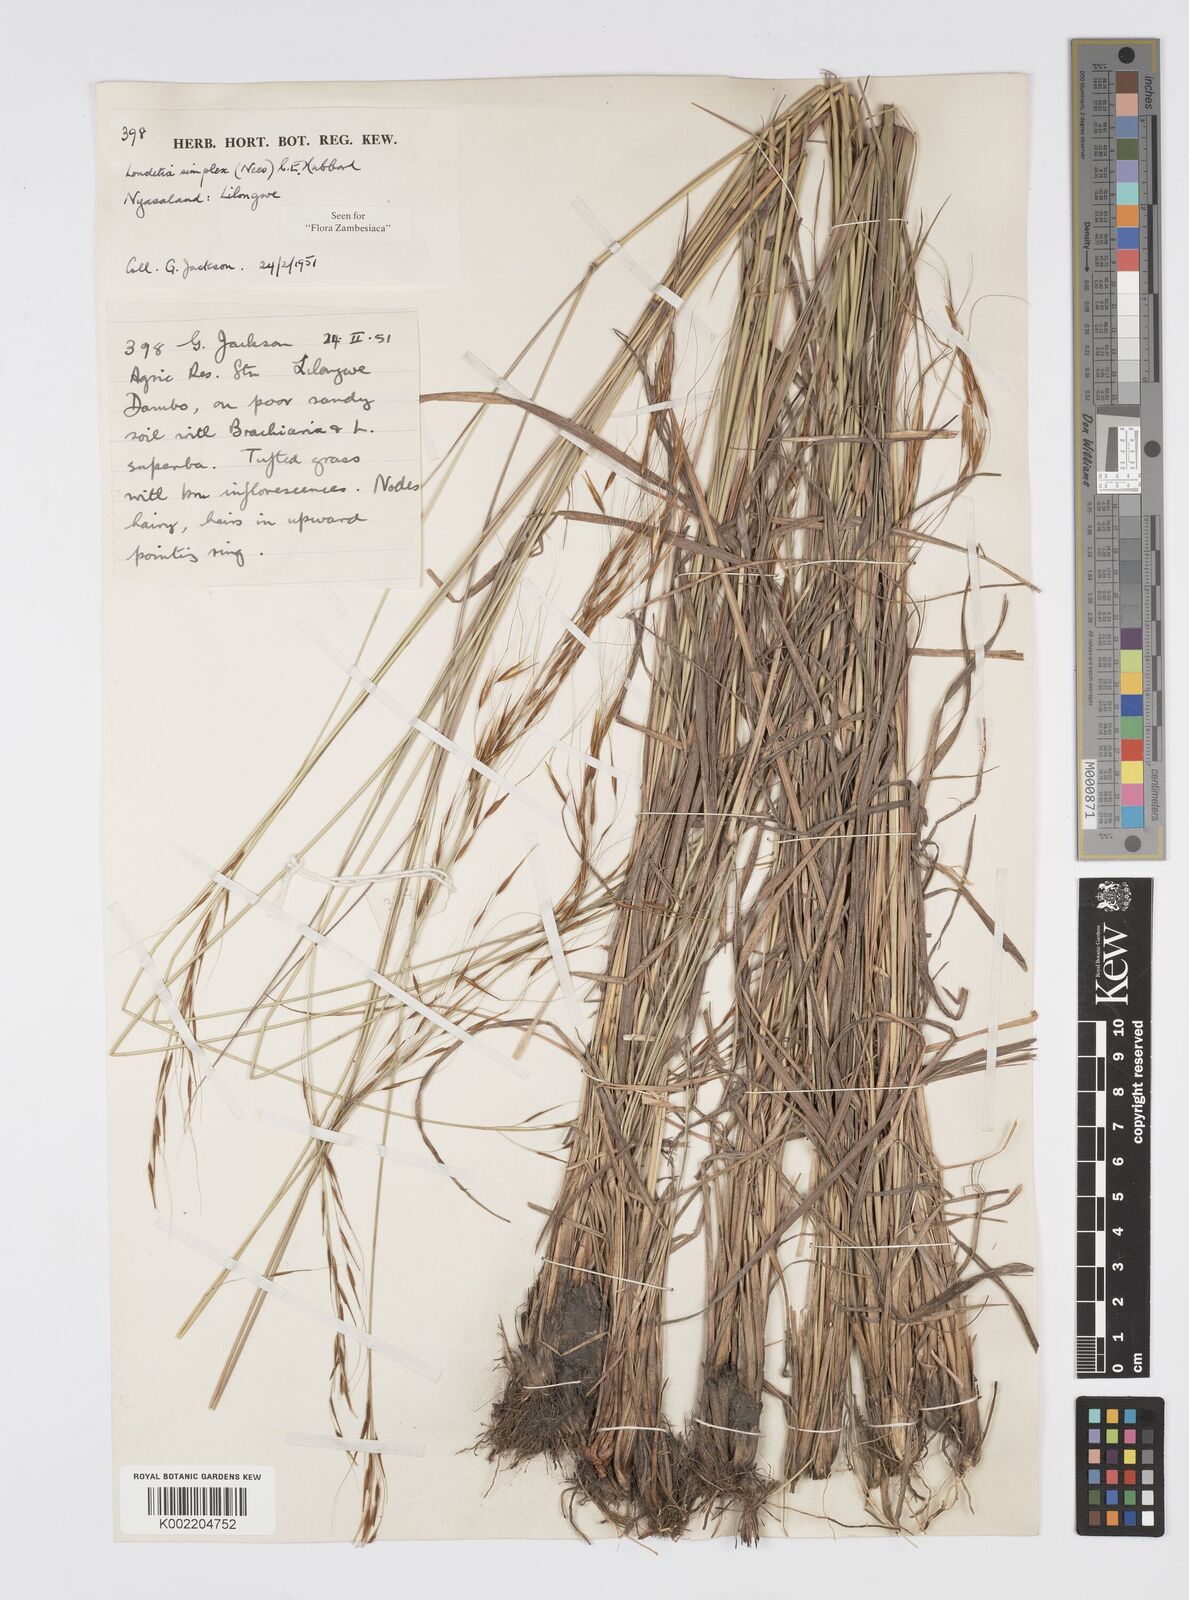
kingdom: Plantae
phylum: Tracheophyta
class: Liliopsida
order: Poales
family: Poaceae
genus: Loudetia
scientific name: Loudetia simplex
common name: Common russet grass
